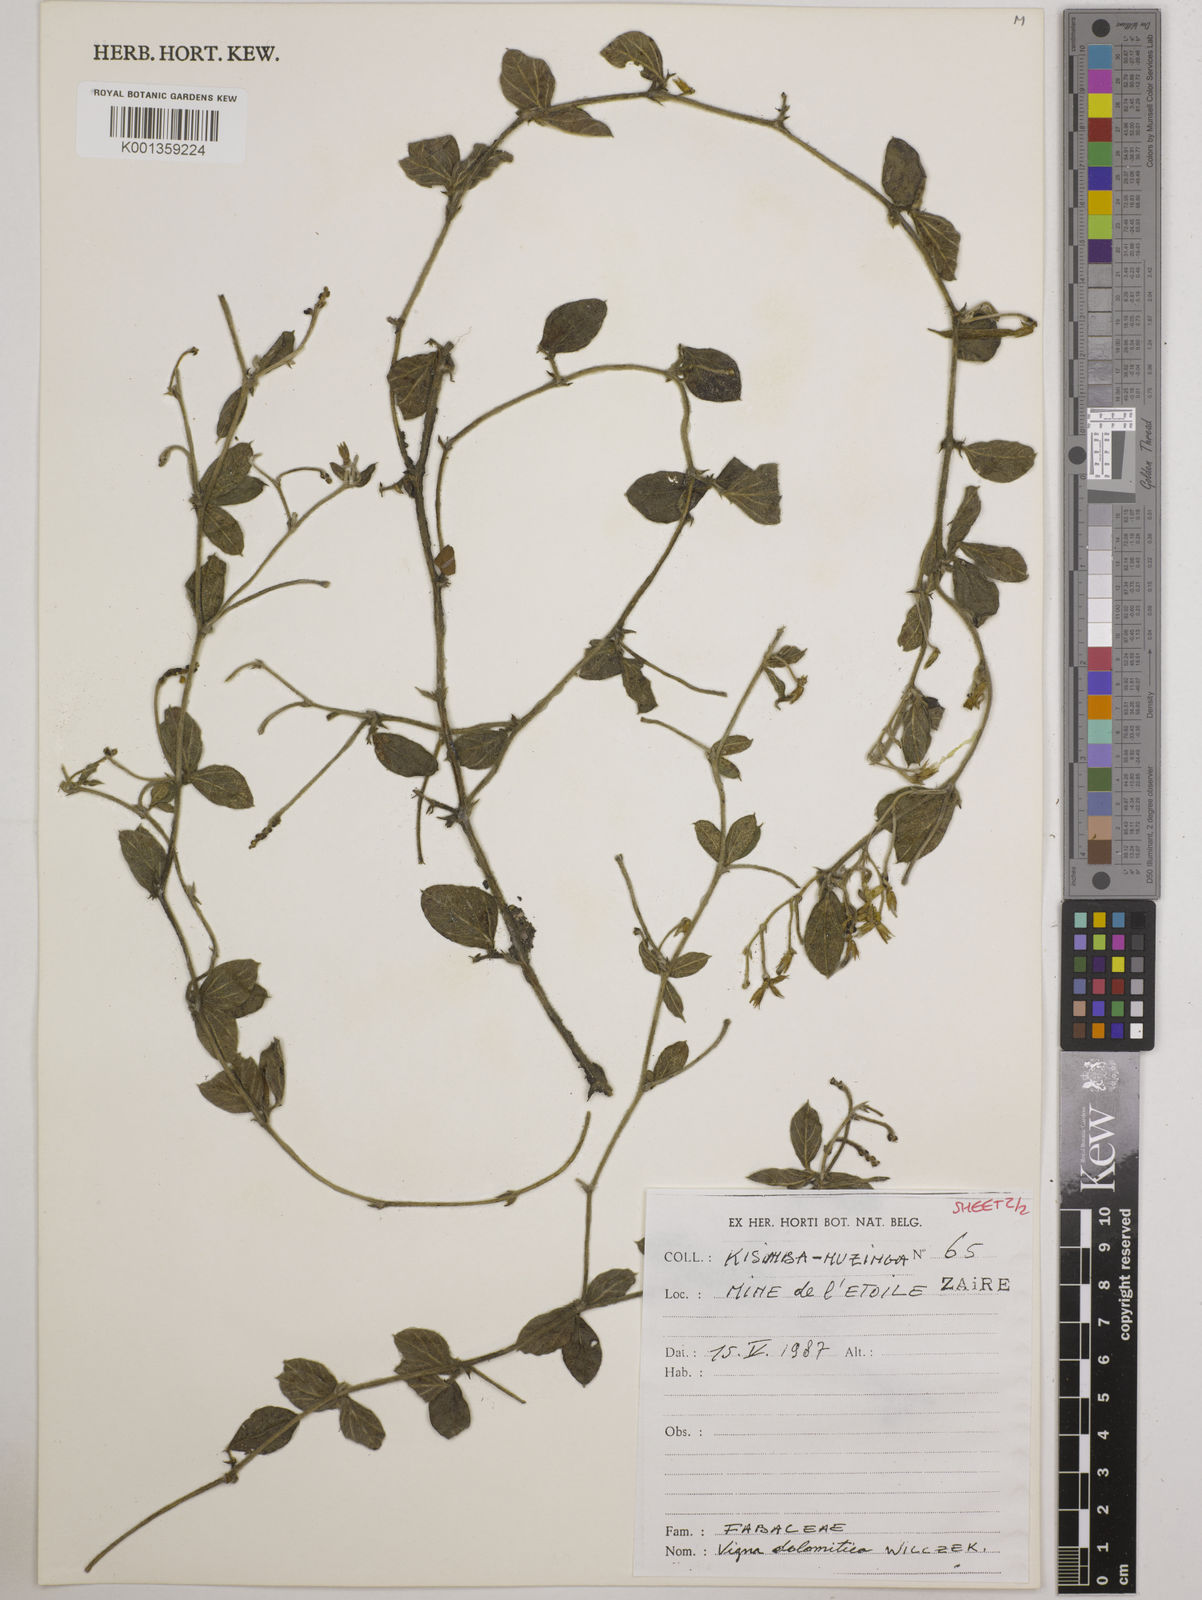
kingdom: Plantae
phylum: Tracheophyta
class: Magnoliopsida
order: Fabales
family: Fabaceae
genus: Vigna
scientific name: Vigna dolomitica
